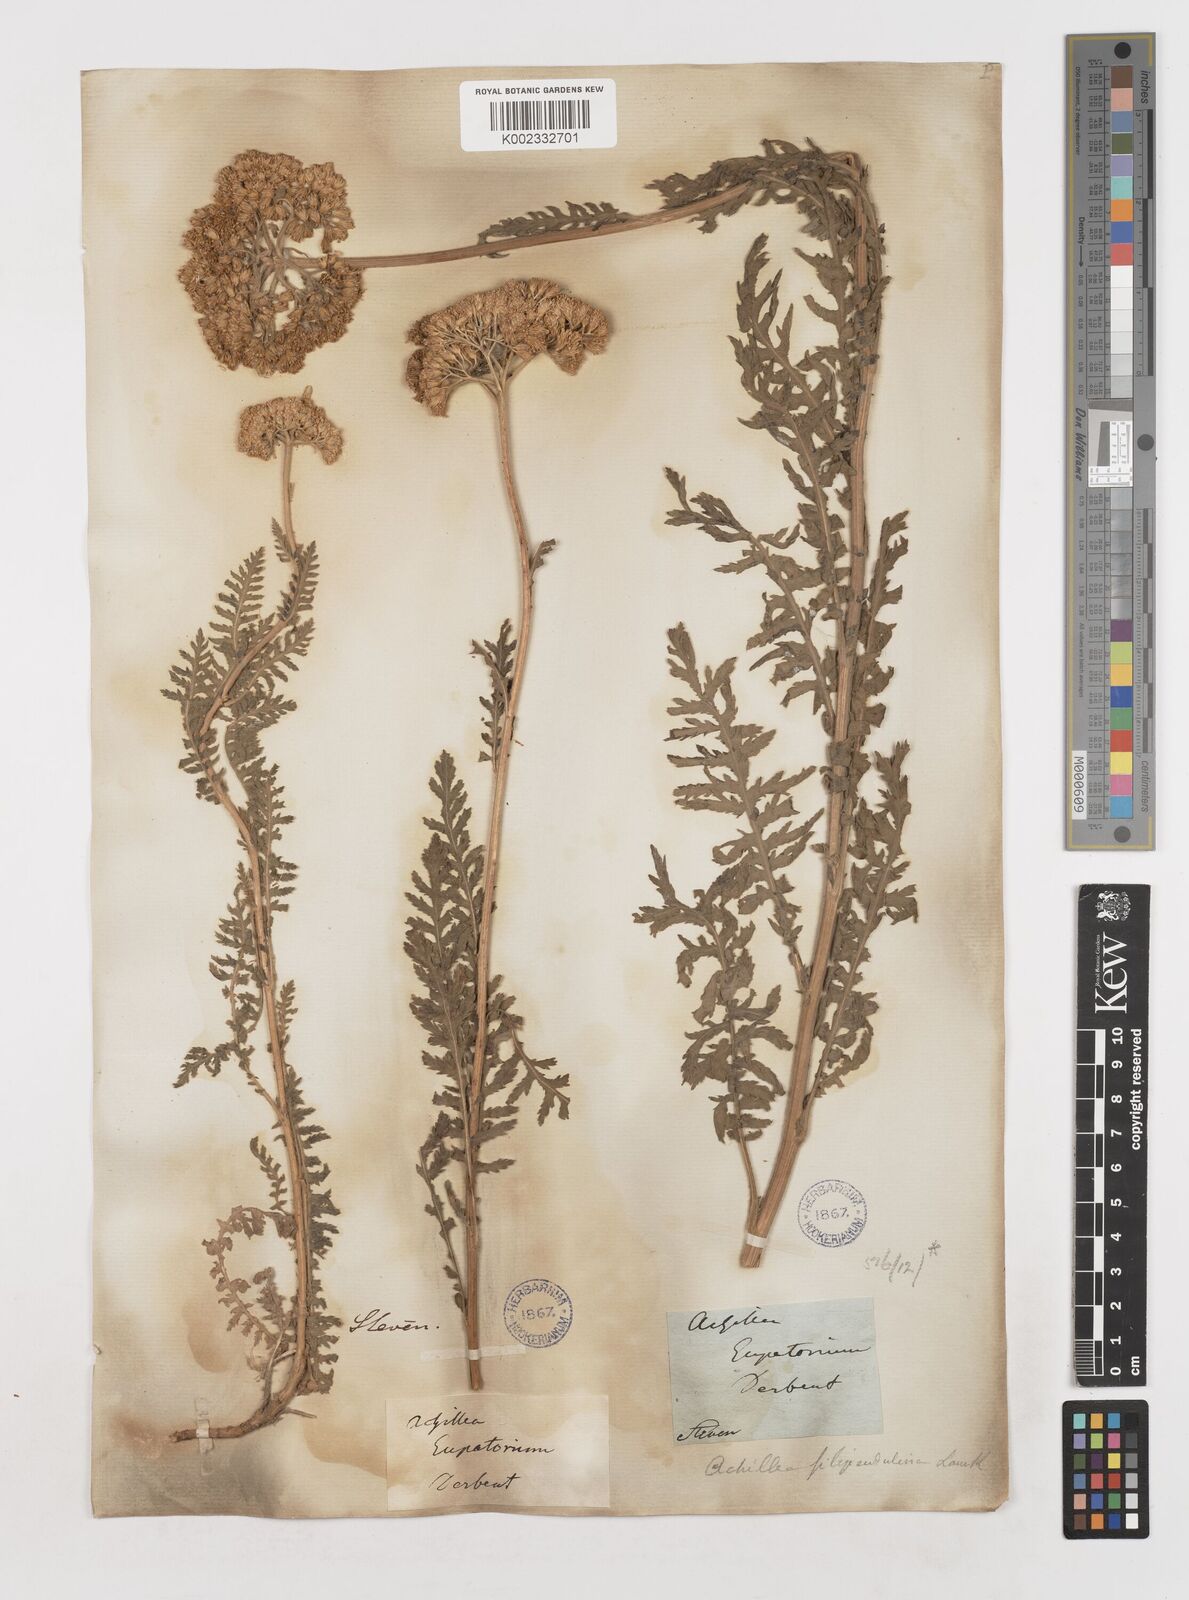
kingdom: Plantae
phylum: Tracheophyta
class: Magnoliopsida
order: Asterales
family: Asteraceae
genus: Achillea
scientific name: Achillea filipendulina
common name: Fernleaf yarrow
